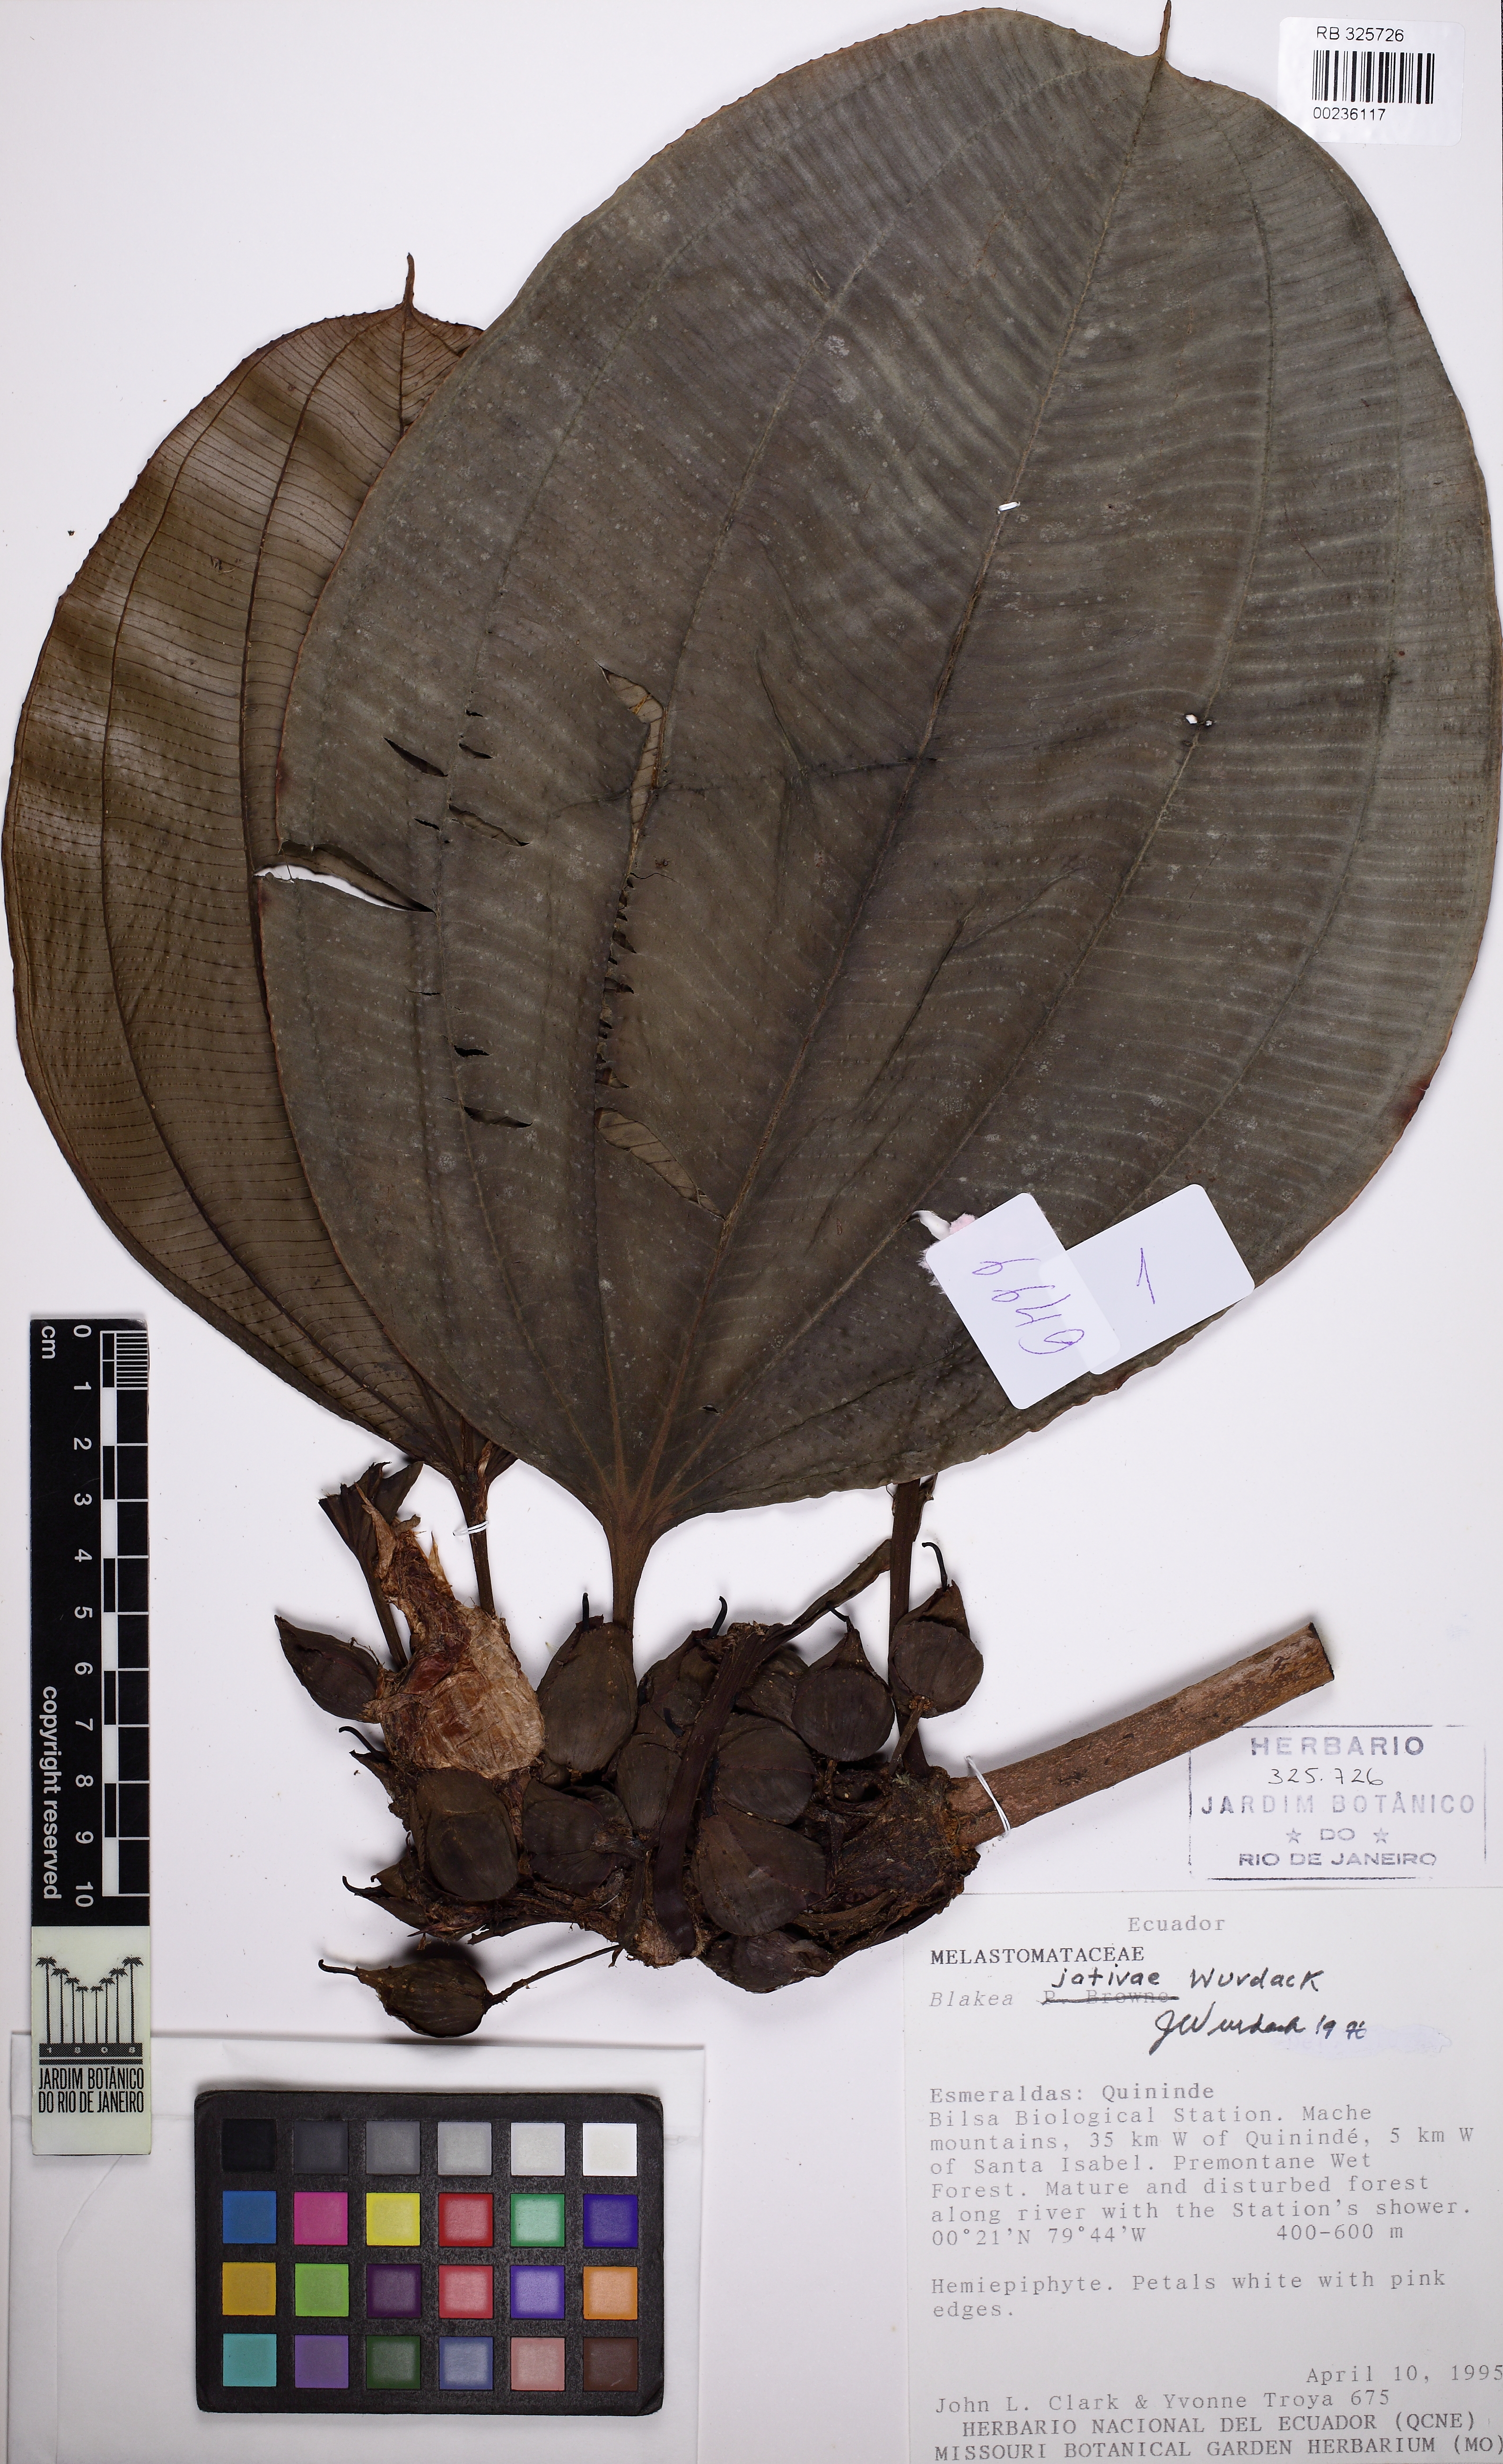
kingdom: Plantae
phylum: Tracheophyta
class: Magnoliopsida
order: Myrtales
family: Melastomataceae
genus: Blakea
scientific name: Blakea jativae
